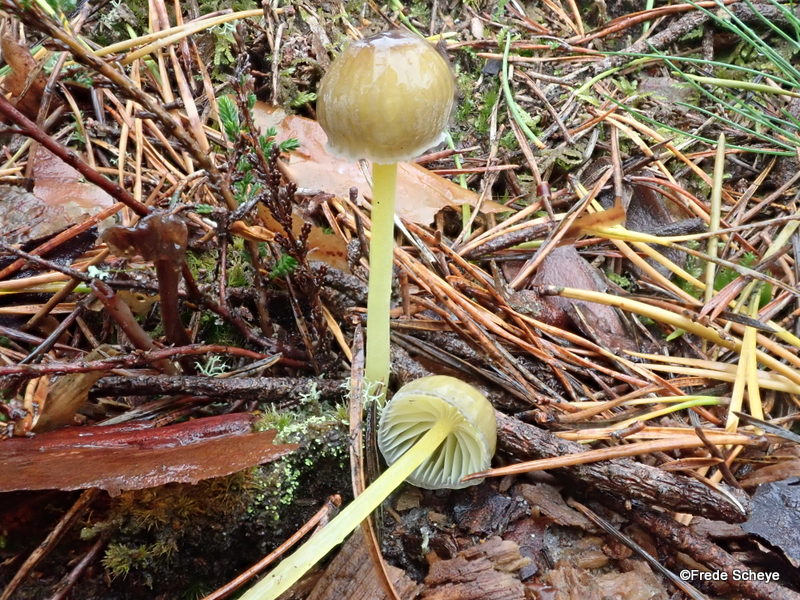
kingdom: Fungi
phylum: Basidiomycota
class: Agaricomycetes
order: Agaricales
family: Mycenaceae
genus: Mycena
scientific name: Mycena epipterygia
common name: gulstokket huesvamp
